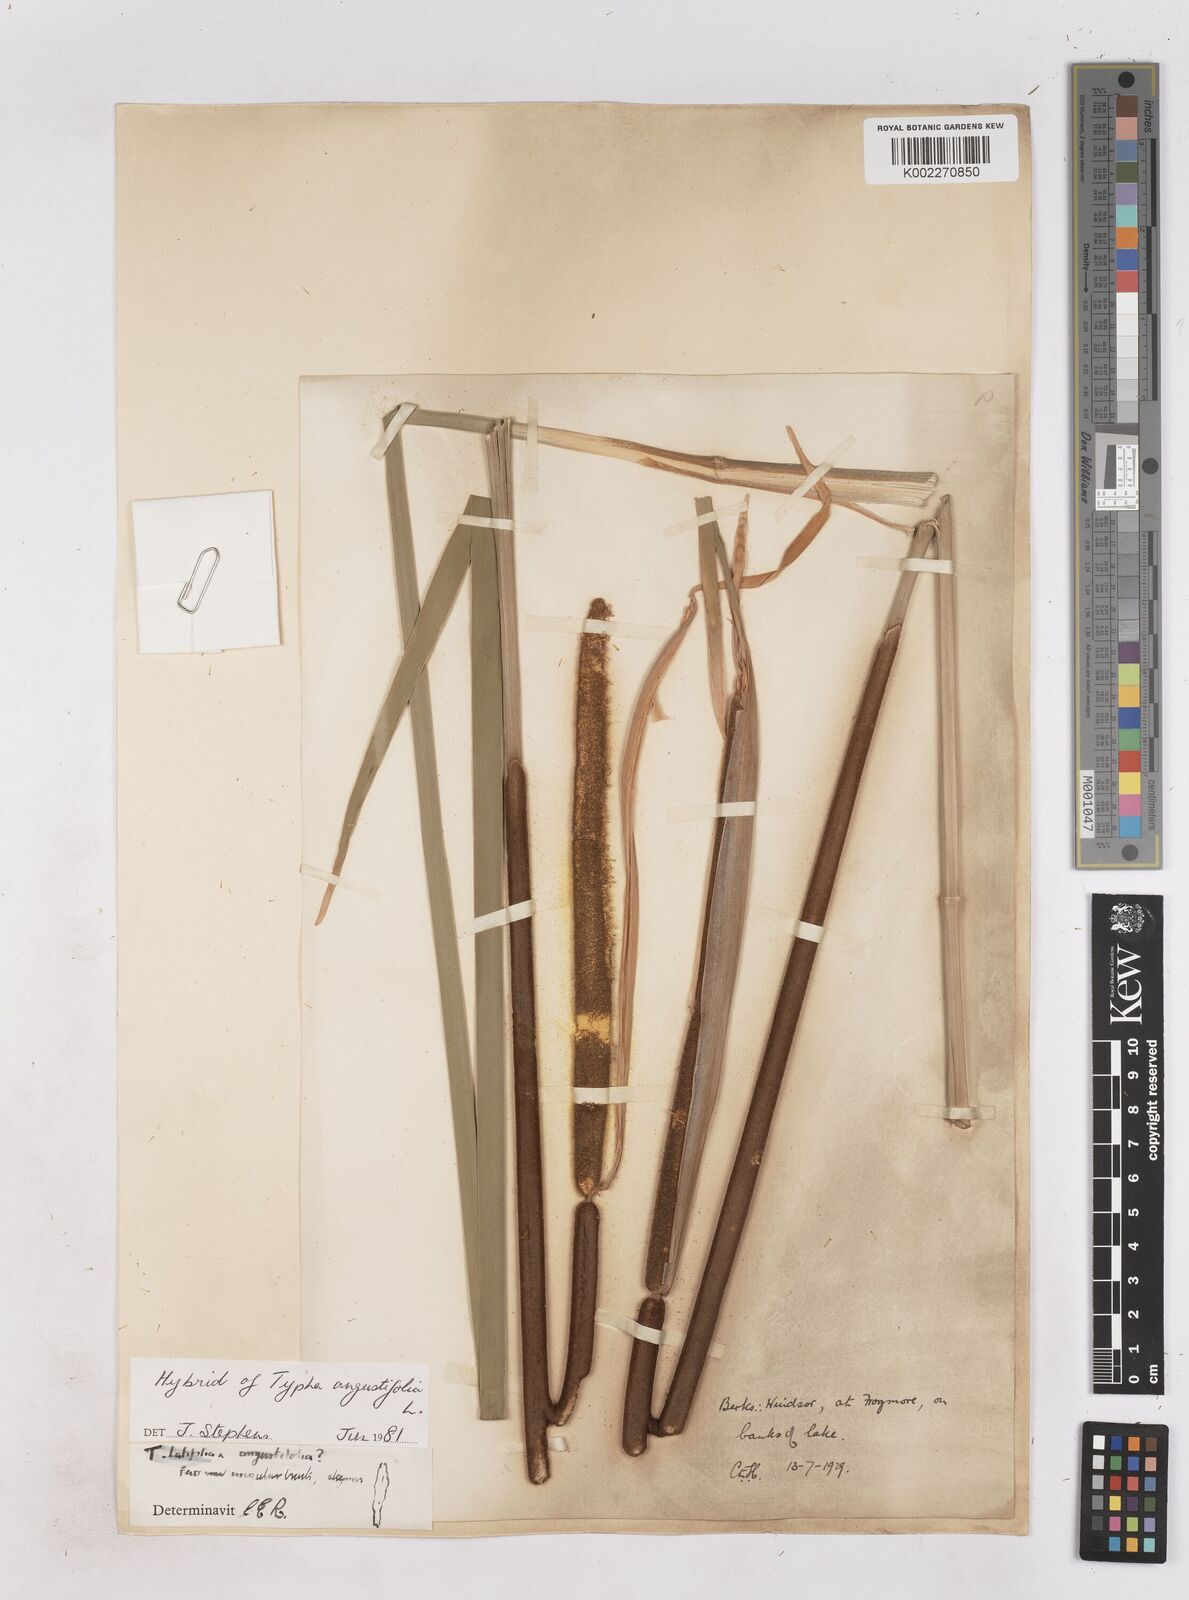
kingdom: Plantae
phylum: Tracheophyta
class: Liliopsida
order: Poales
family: Typhaceae
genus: Typha
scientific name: Typha angustifolia
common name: Lesser bulrush
